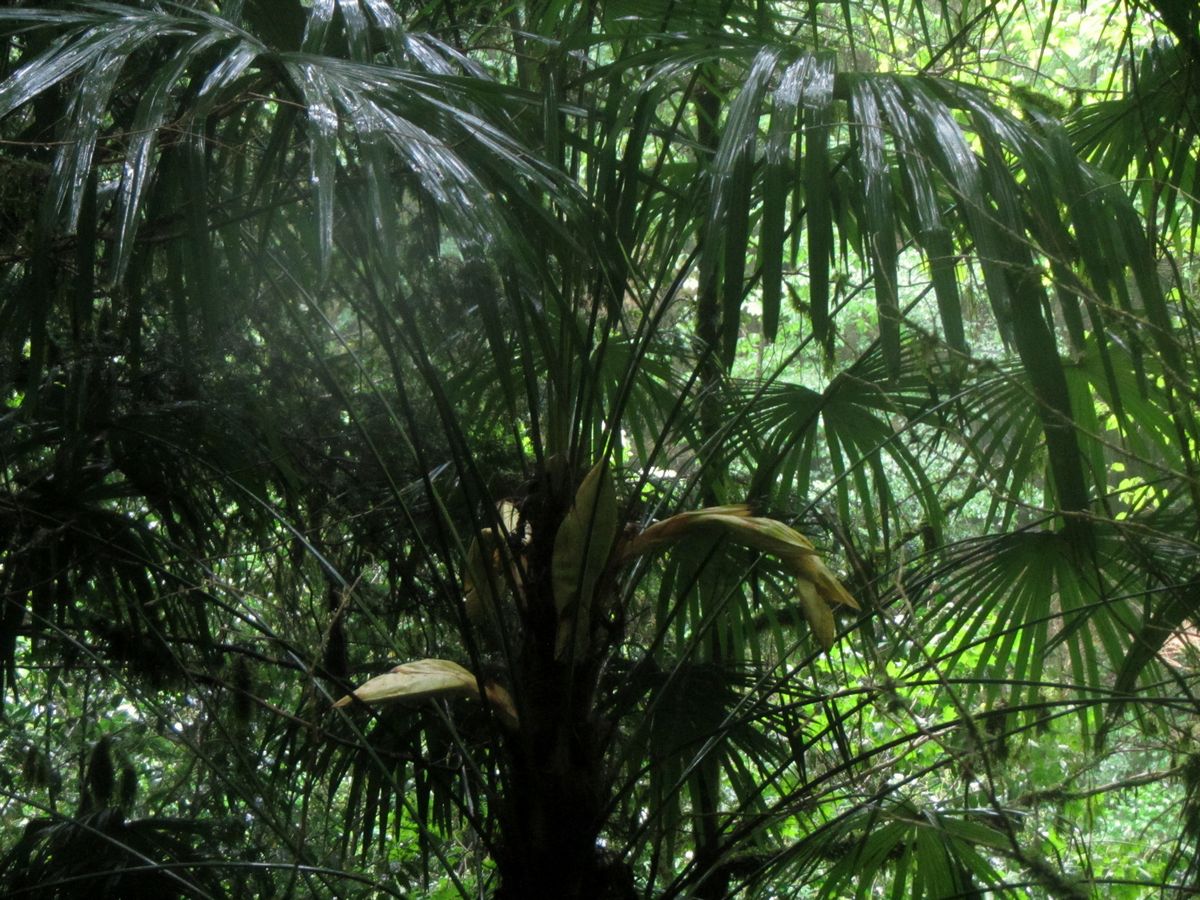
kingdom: Plantae
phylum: Tracheophyta
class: Liliopsida
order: Arecales
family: Arecaceae
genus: Trachycarpus
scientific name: Trachycarpus fortunei
